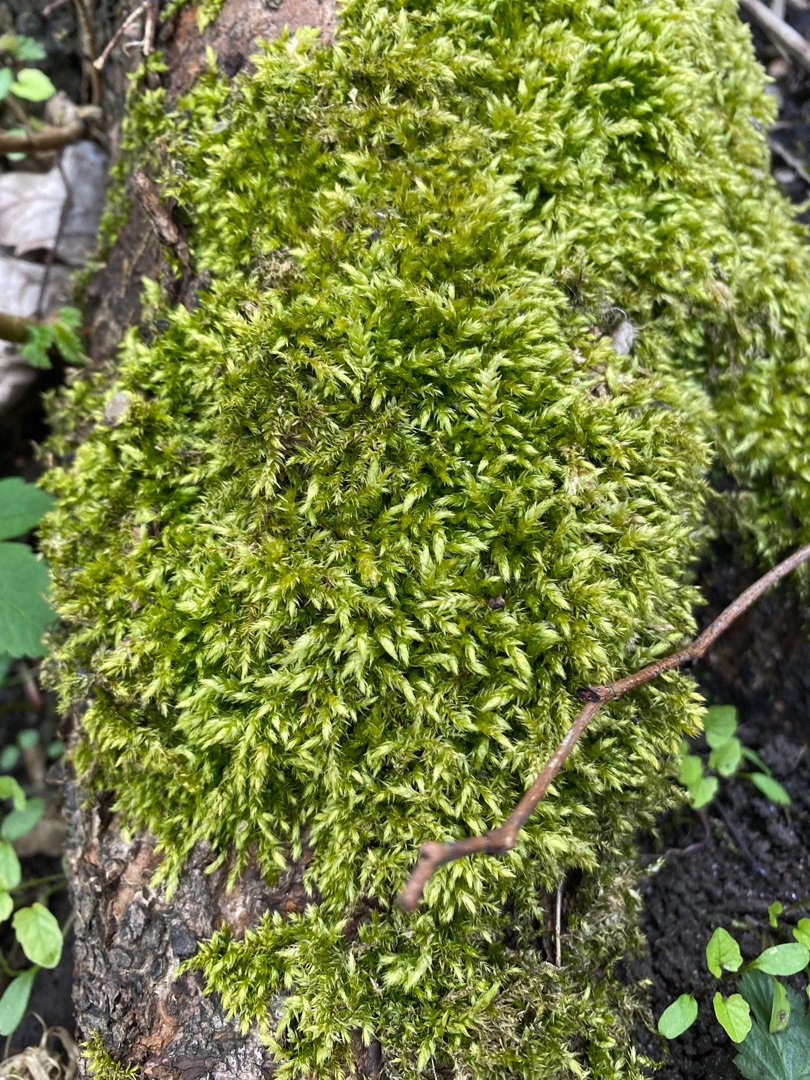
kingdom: Plantae
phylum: Bryophyta
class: Bryopsida
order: Hypnales
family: Brachytheciaceae
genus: Brachythecium
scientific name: Brachythecium rutabulum
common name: Almindelig kortkapsel
